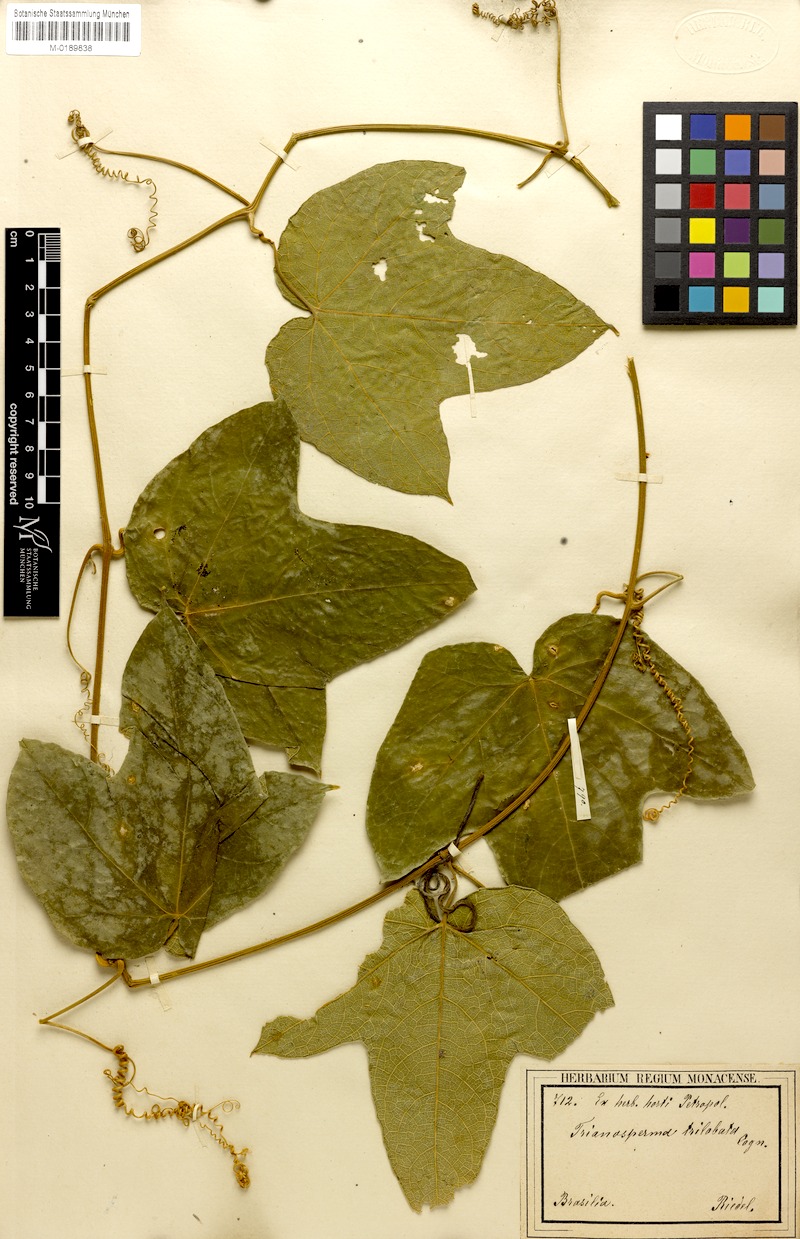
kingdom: Plantae
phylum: Tracheophyta
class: Magnoliopsida
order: Cucurbitales
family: Cucurbitaceae
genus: Cayaponia
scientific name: Cayaponia trilobata
